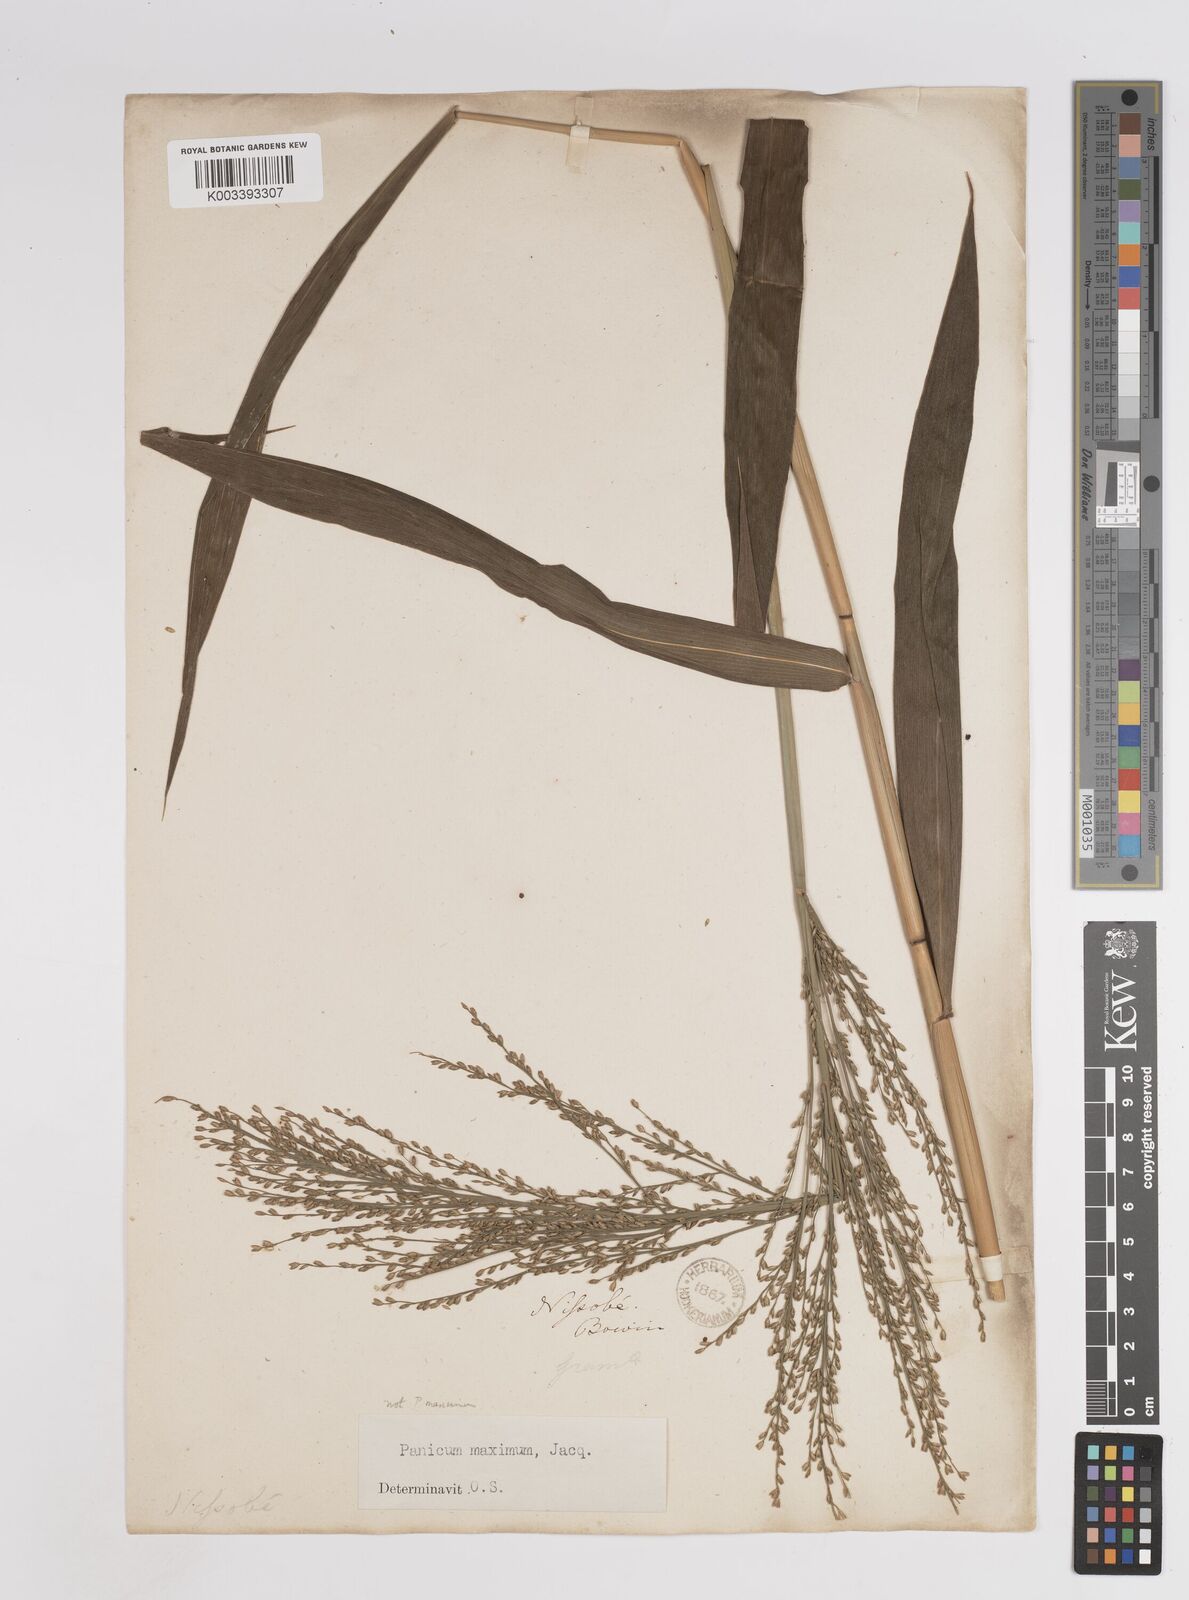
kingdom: Plantae
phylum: Tracheophyta
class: Liliopsida
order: Poales
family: Poaceae
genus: Panicum
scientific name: Panicum malacotrichum
